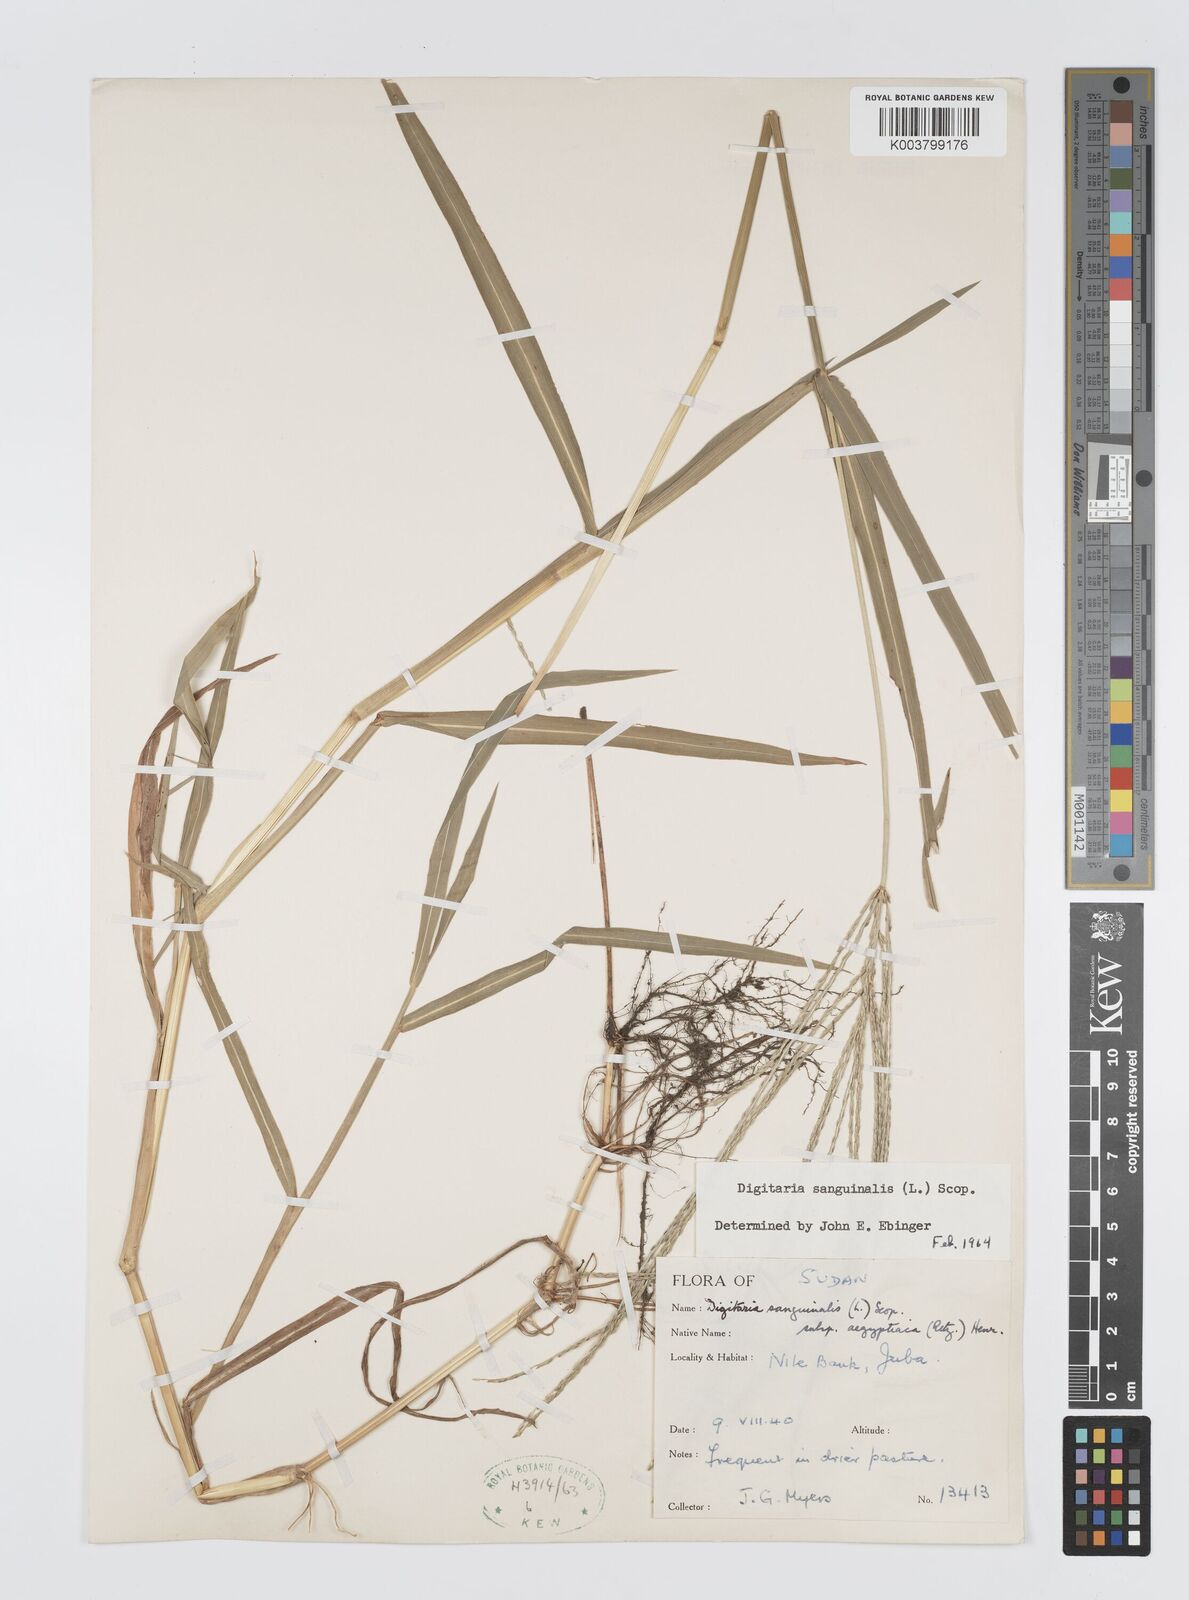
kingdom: Plantae
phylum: Tracheophyta
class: Liliopsida
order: Poales
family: Poaceae
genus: Digitaria
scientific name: Digitaria sanguinalis
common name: Hairy crabgrass
